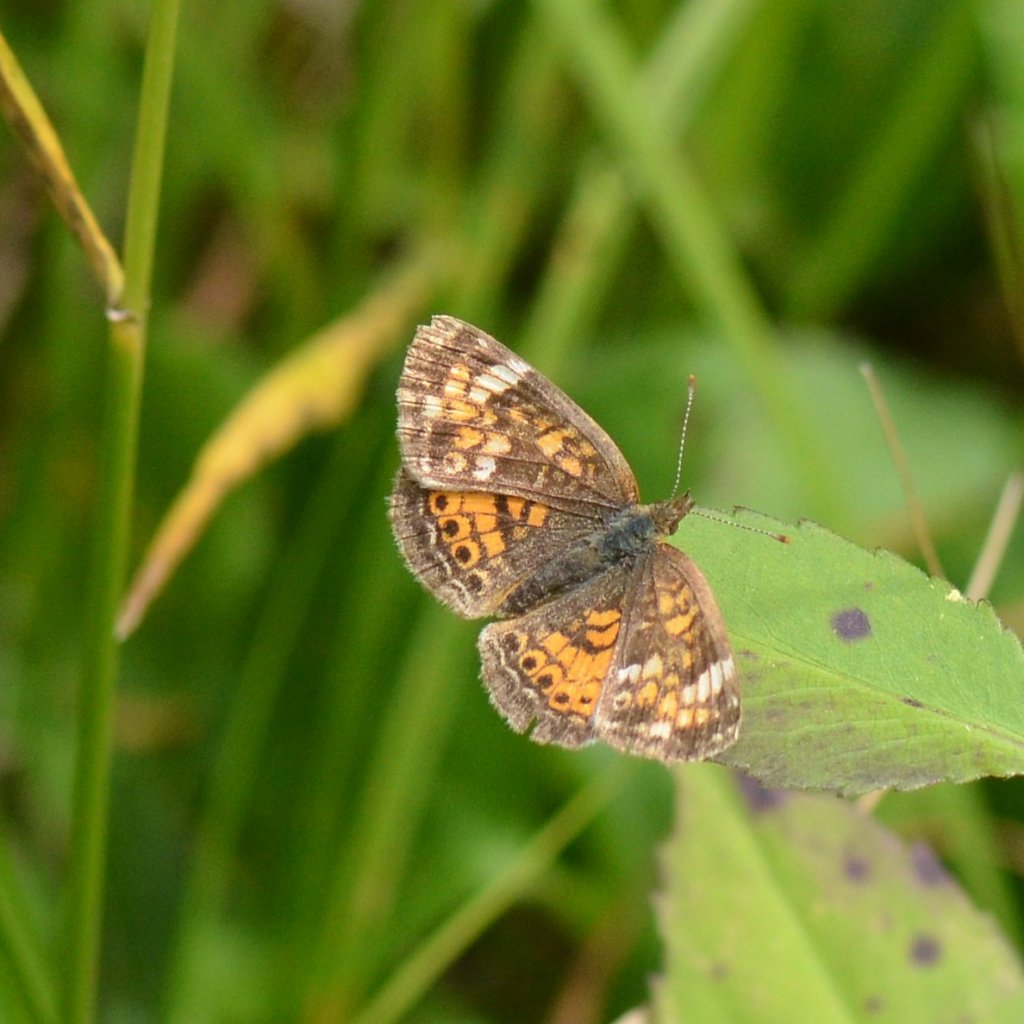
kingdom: Animalia
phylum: Arthropoda
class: Insecta
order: Lepidoptera
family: Nymphalidae
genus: Phyciodes
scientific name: Phyciodes tharos
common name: Northern Crescent
